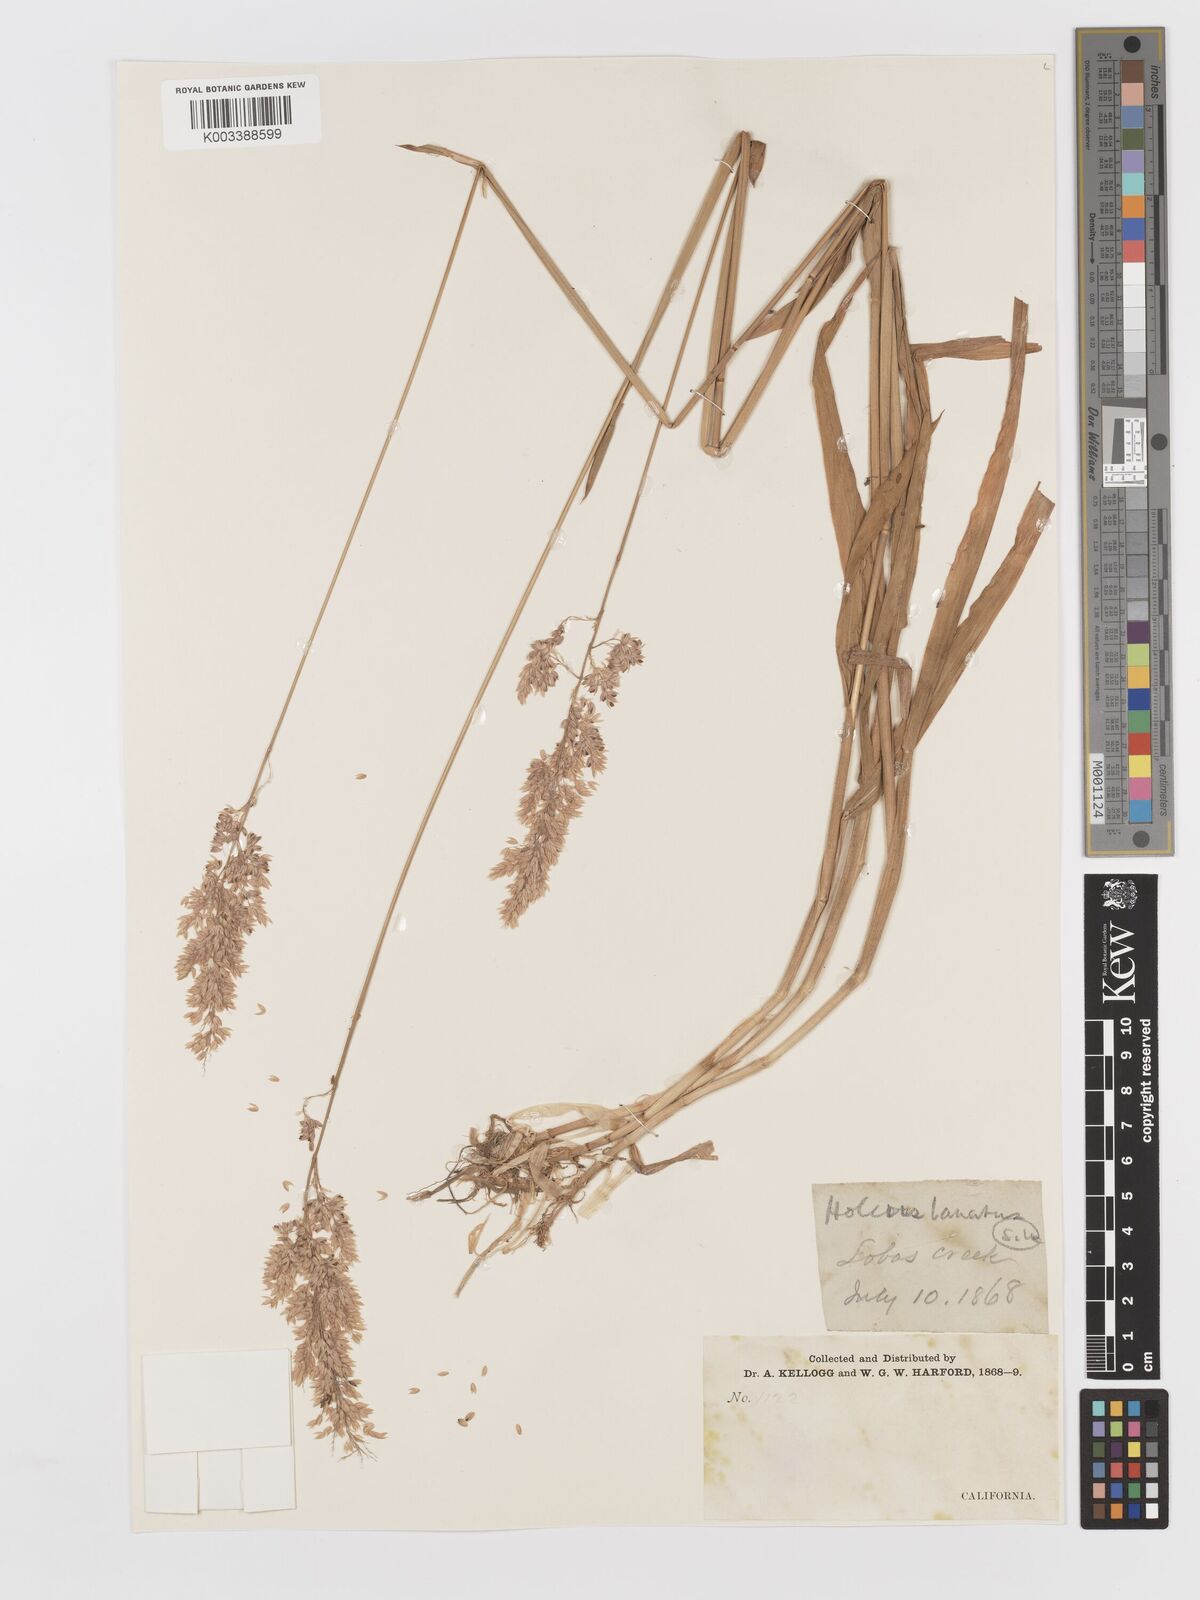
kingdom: Plantae
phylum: Tracheophyta
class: Liliopsida
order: Poales
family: Poaceae
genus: Holcus
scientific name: Holcus lanatus
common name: Yorkshire-fog
